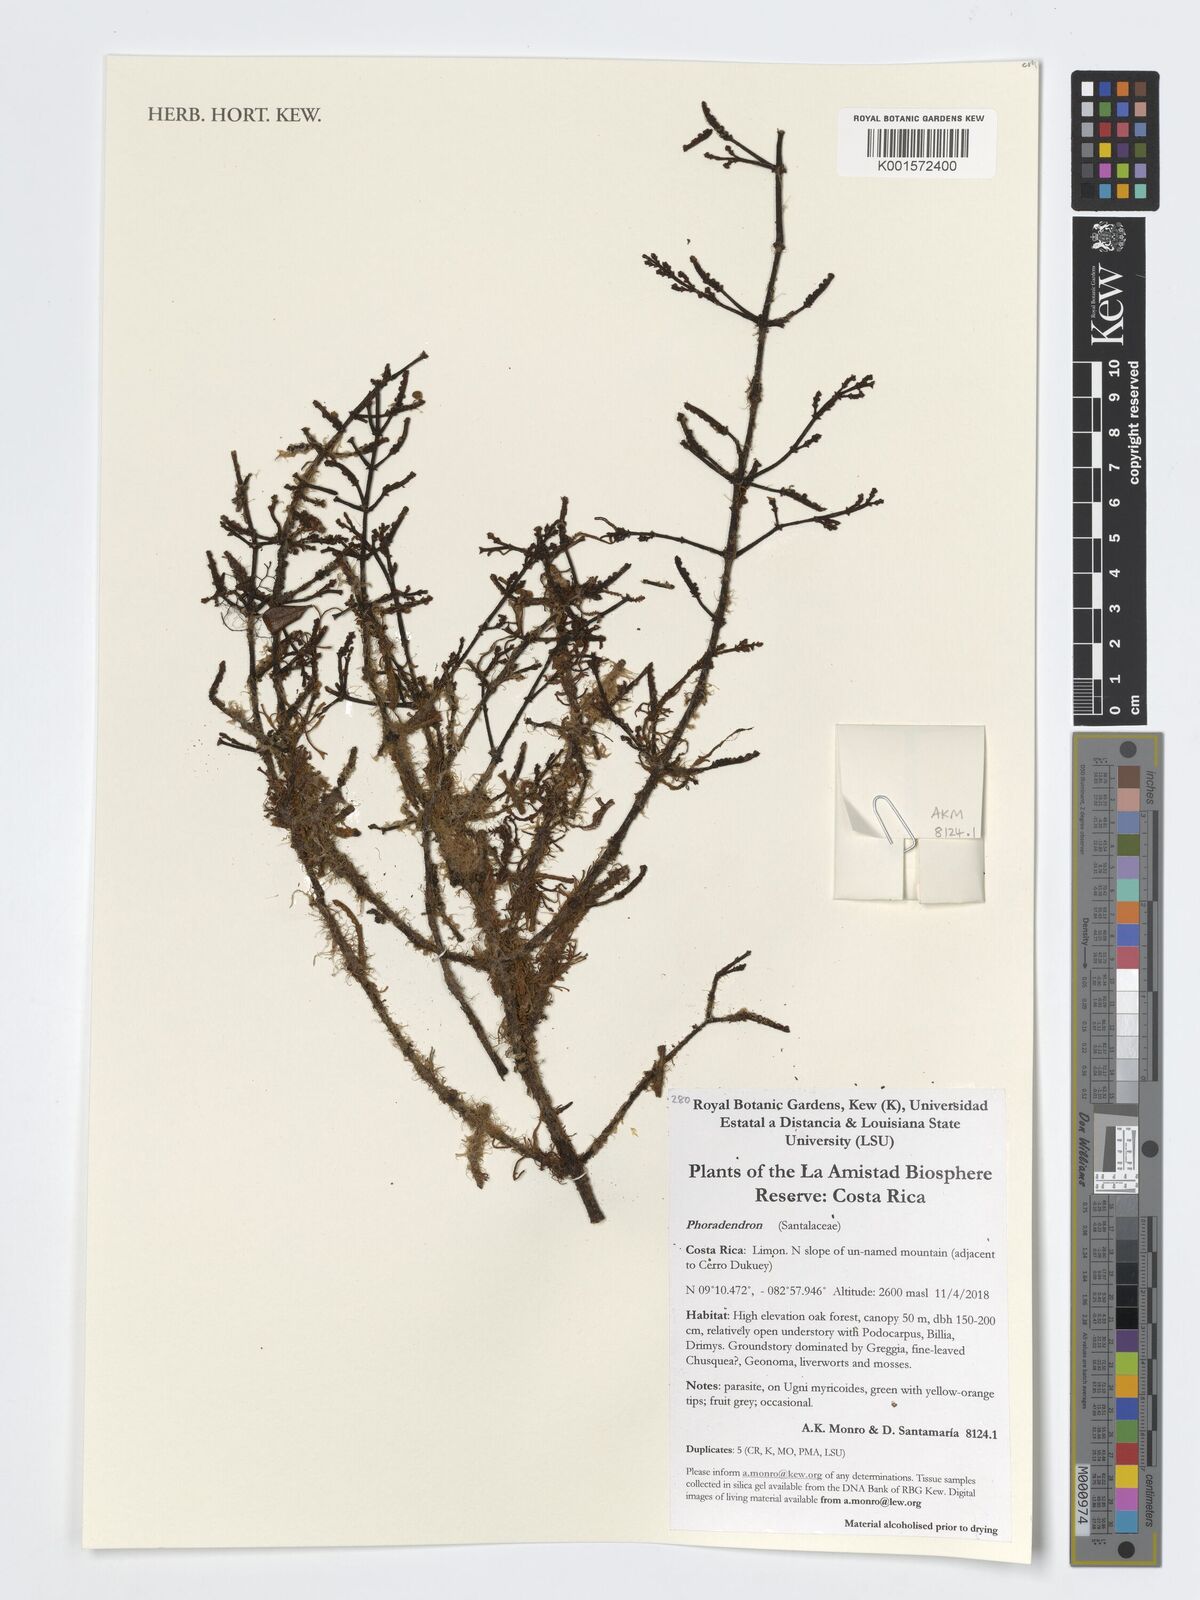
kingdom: Plantae
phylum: Tracheophyta
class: Magnoliopsida
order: Santalales
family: Viscaceae
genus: Phoradendron
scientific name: Phoradendron
